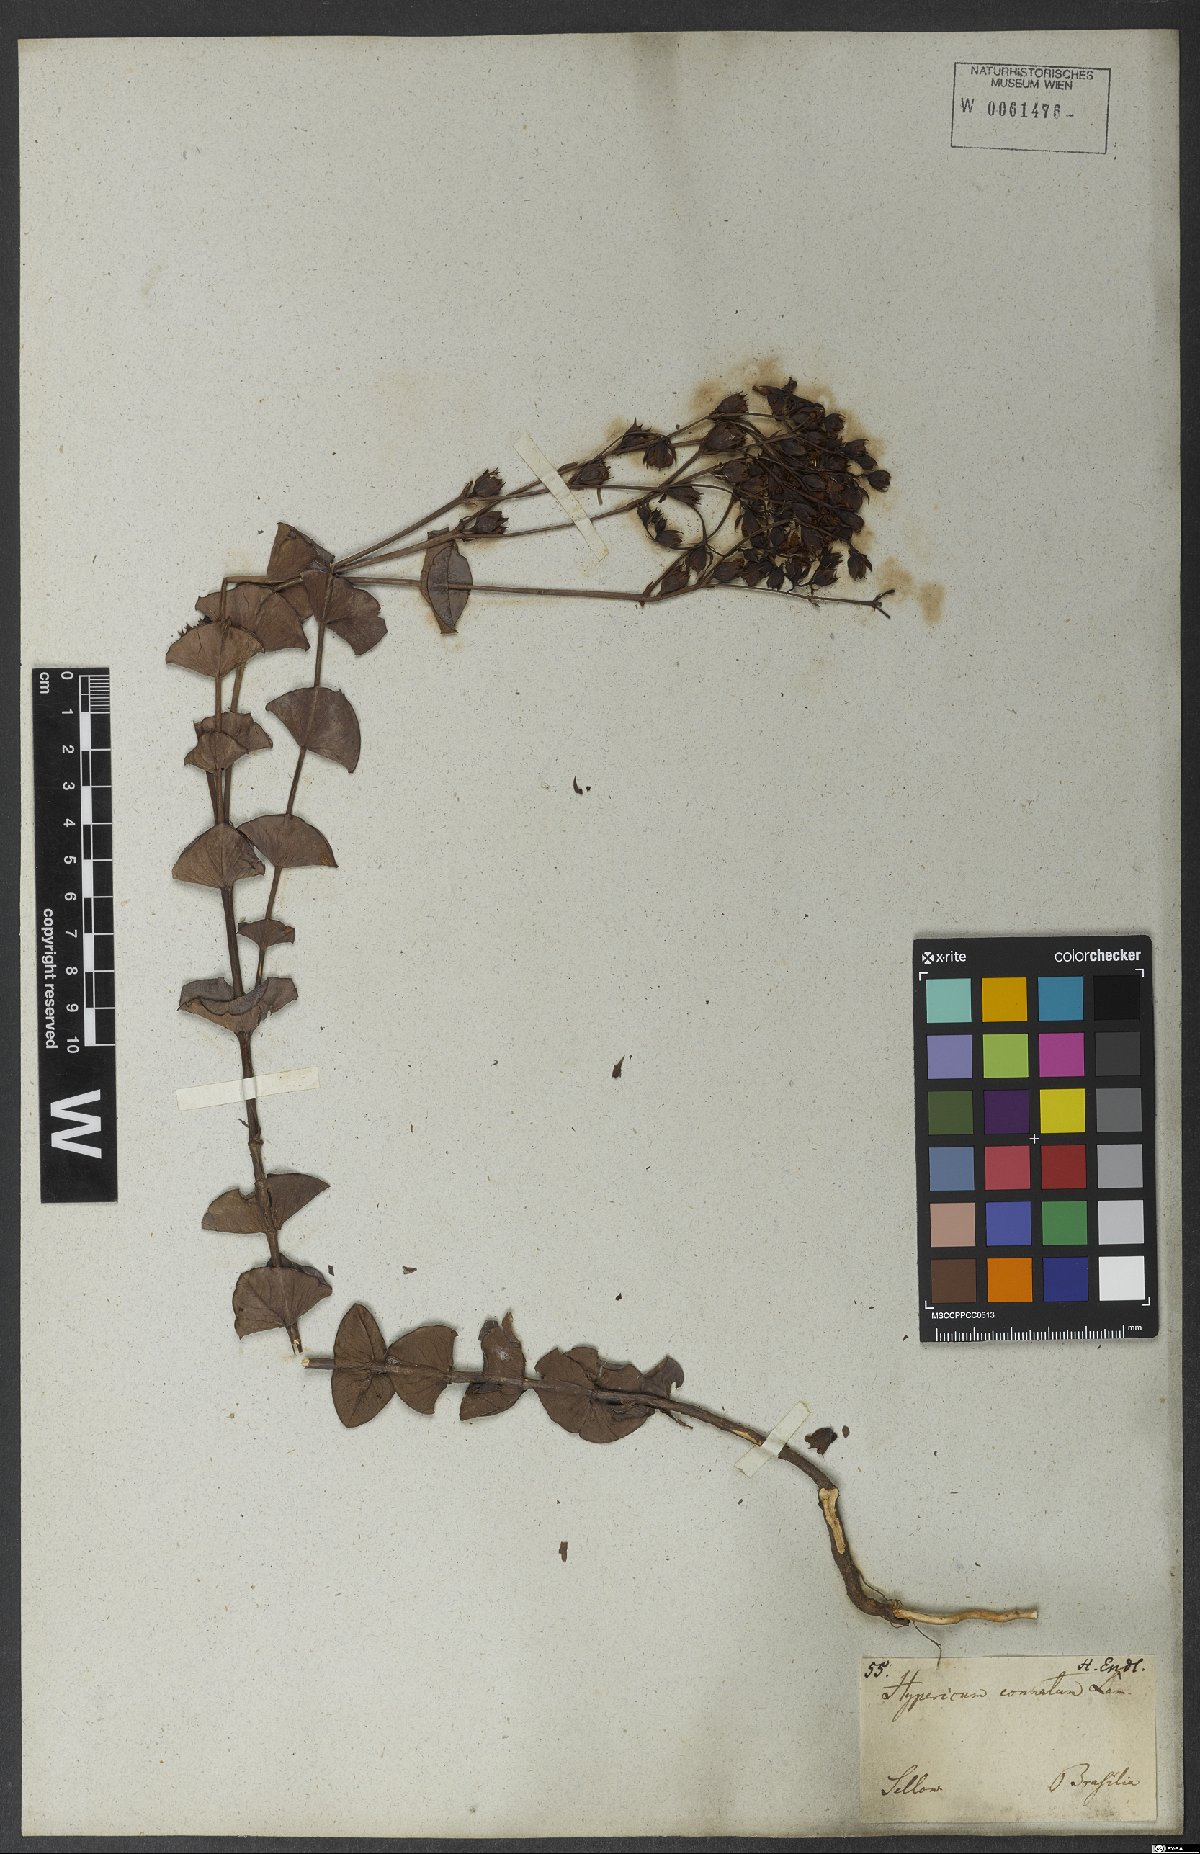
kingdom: Plantae
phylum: Tracheophyta
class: Magnoliopsida
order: Malpighiales
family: Hypericaceae
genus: Hypericum
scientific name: Hypericum connatum
